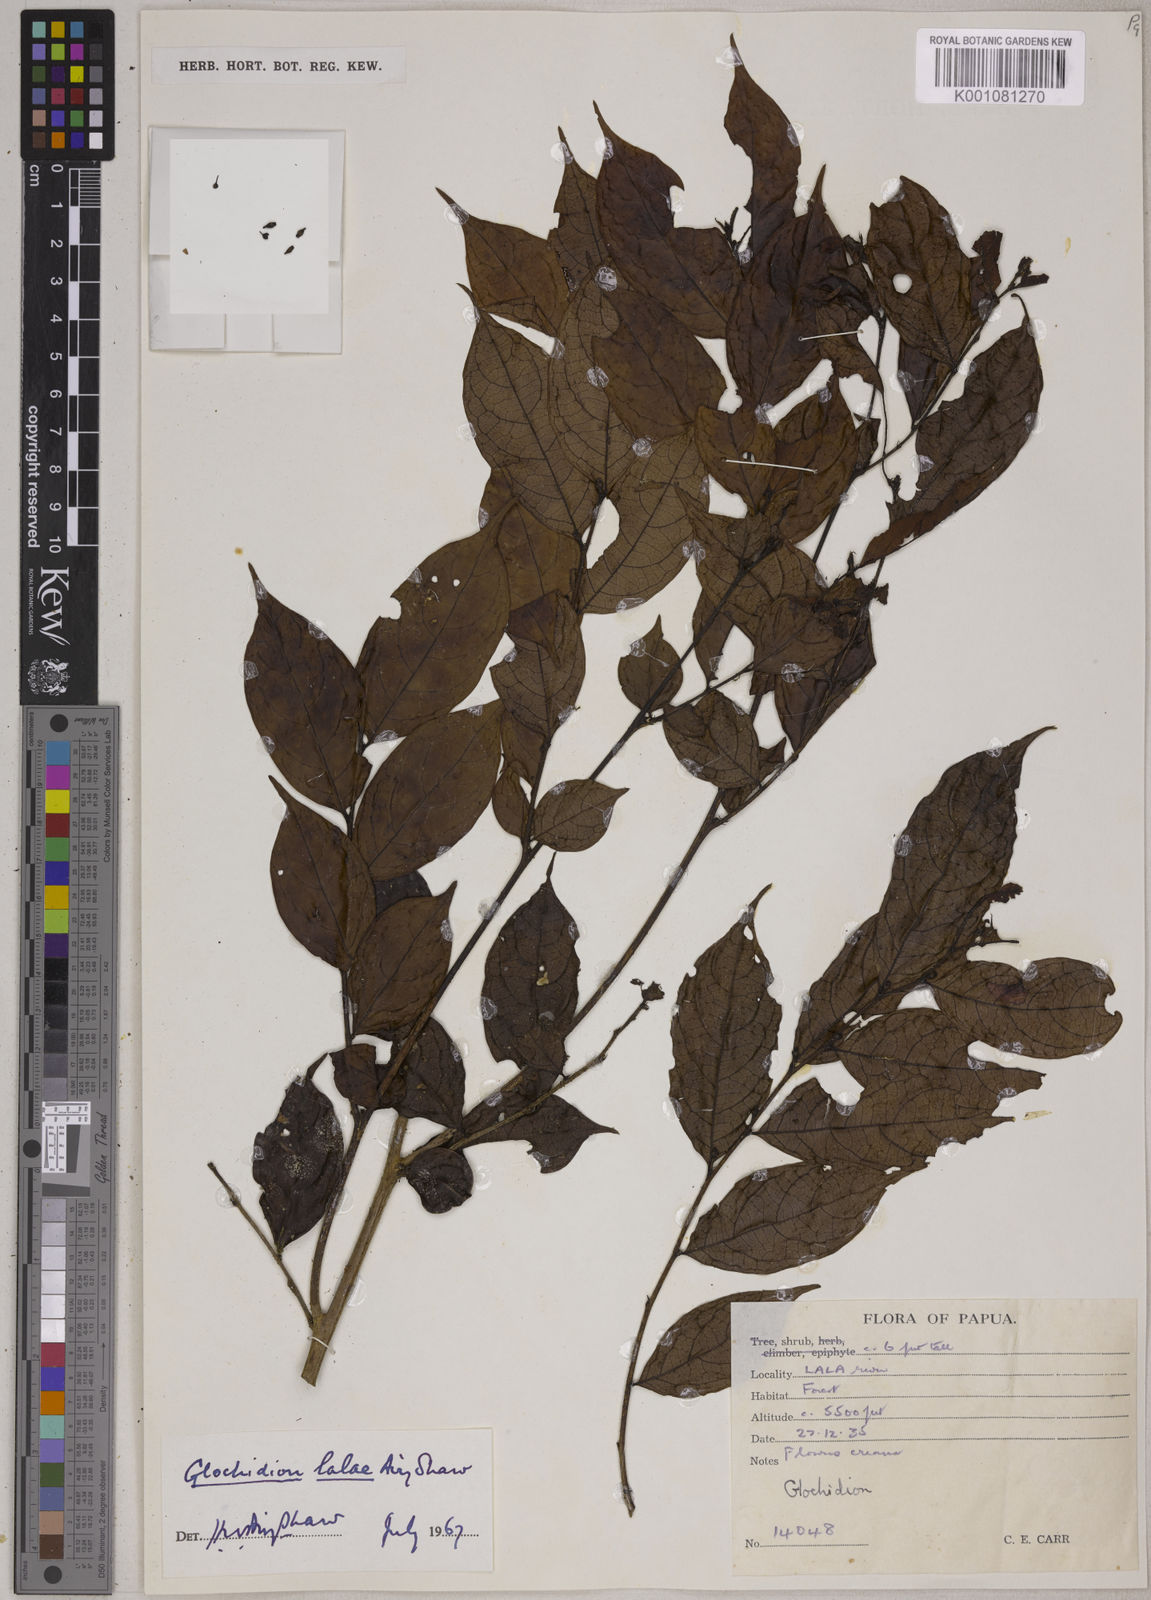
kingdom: Plantae
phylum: Tracheophyta
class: Magnoliopsida
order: Malpighiales
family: Phyllanthaceae
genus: Glochidion
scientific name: Glochidion lalae
